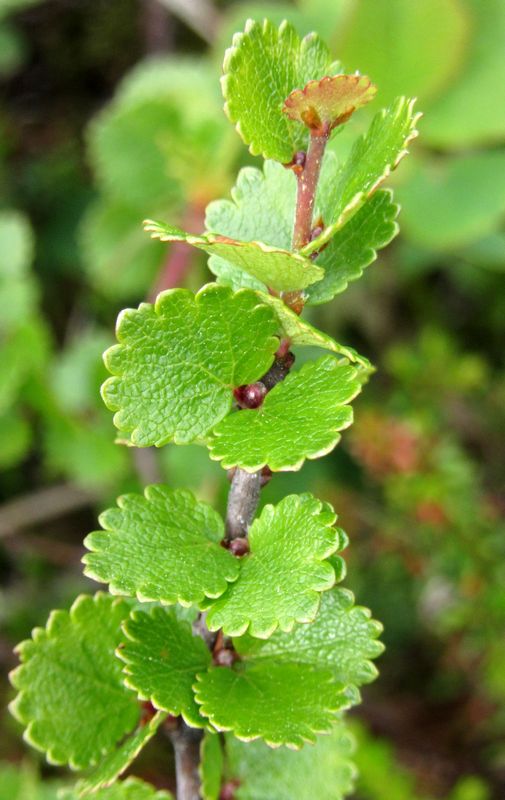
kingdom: Plantae
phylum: Tracheophyta
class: Magnoliopsida
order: Fagales
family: Betulaceae
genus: Betula
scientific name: Betula nana
